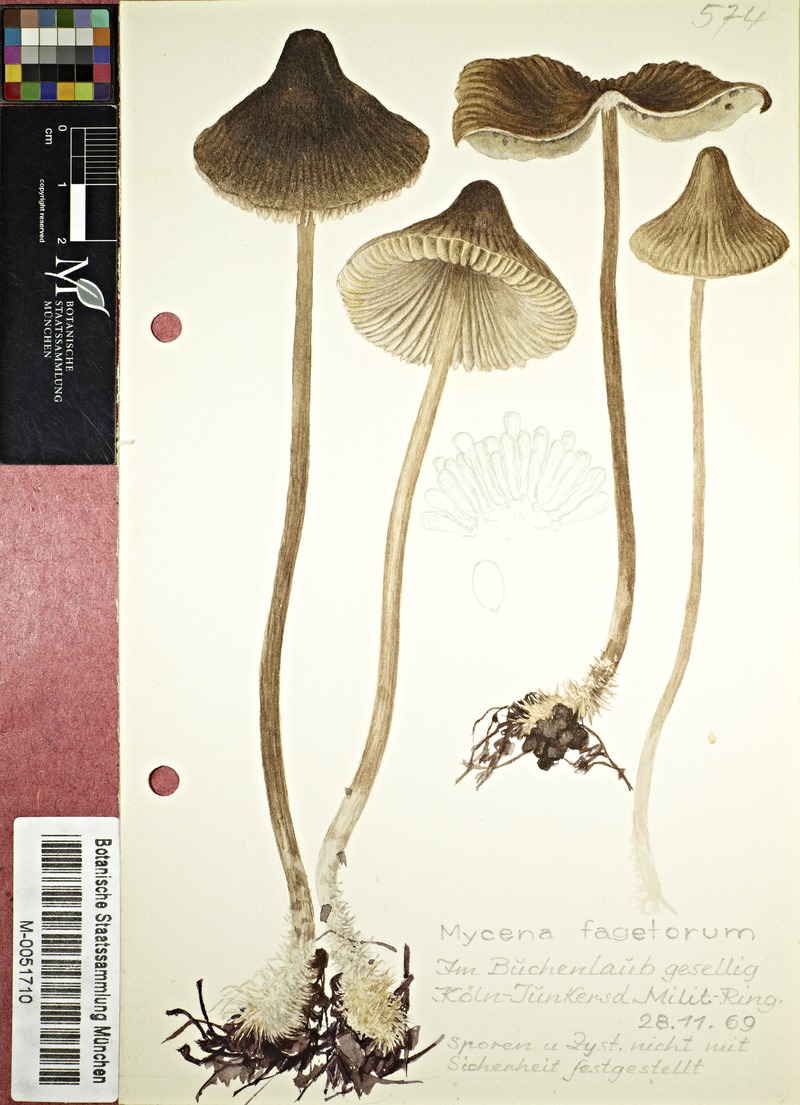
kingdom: Fungi
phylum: Basidiomycota
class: Agaricomycetes
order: Agaricales
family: Mycenaceae
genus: Mycena
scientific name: Mycena fagetorum
